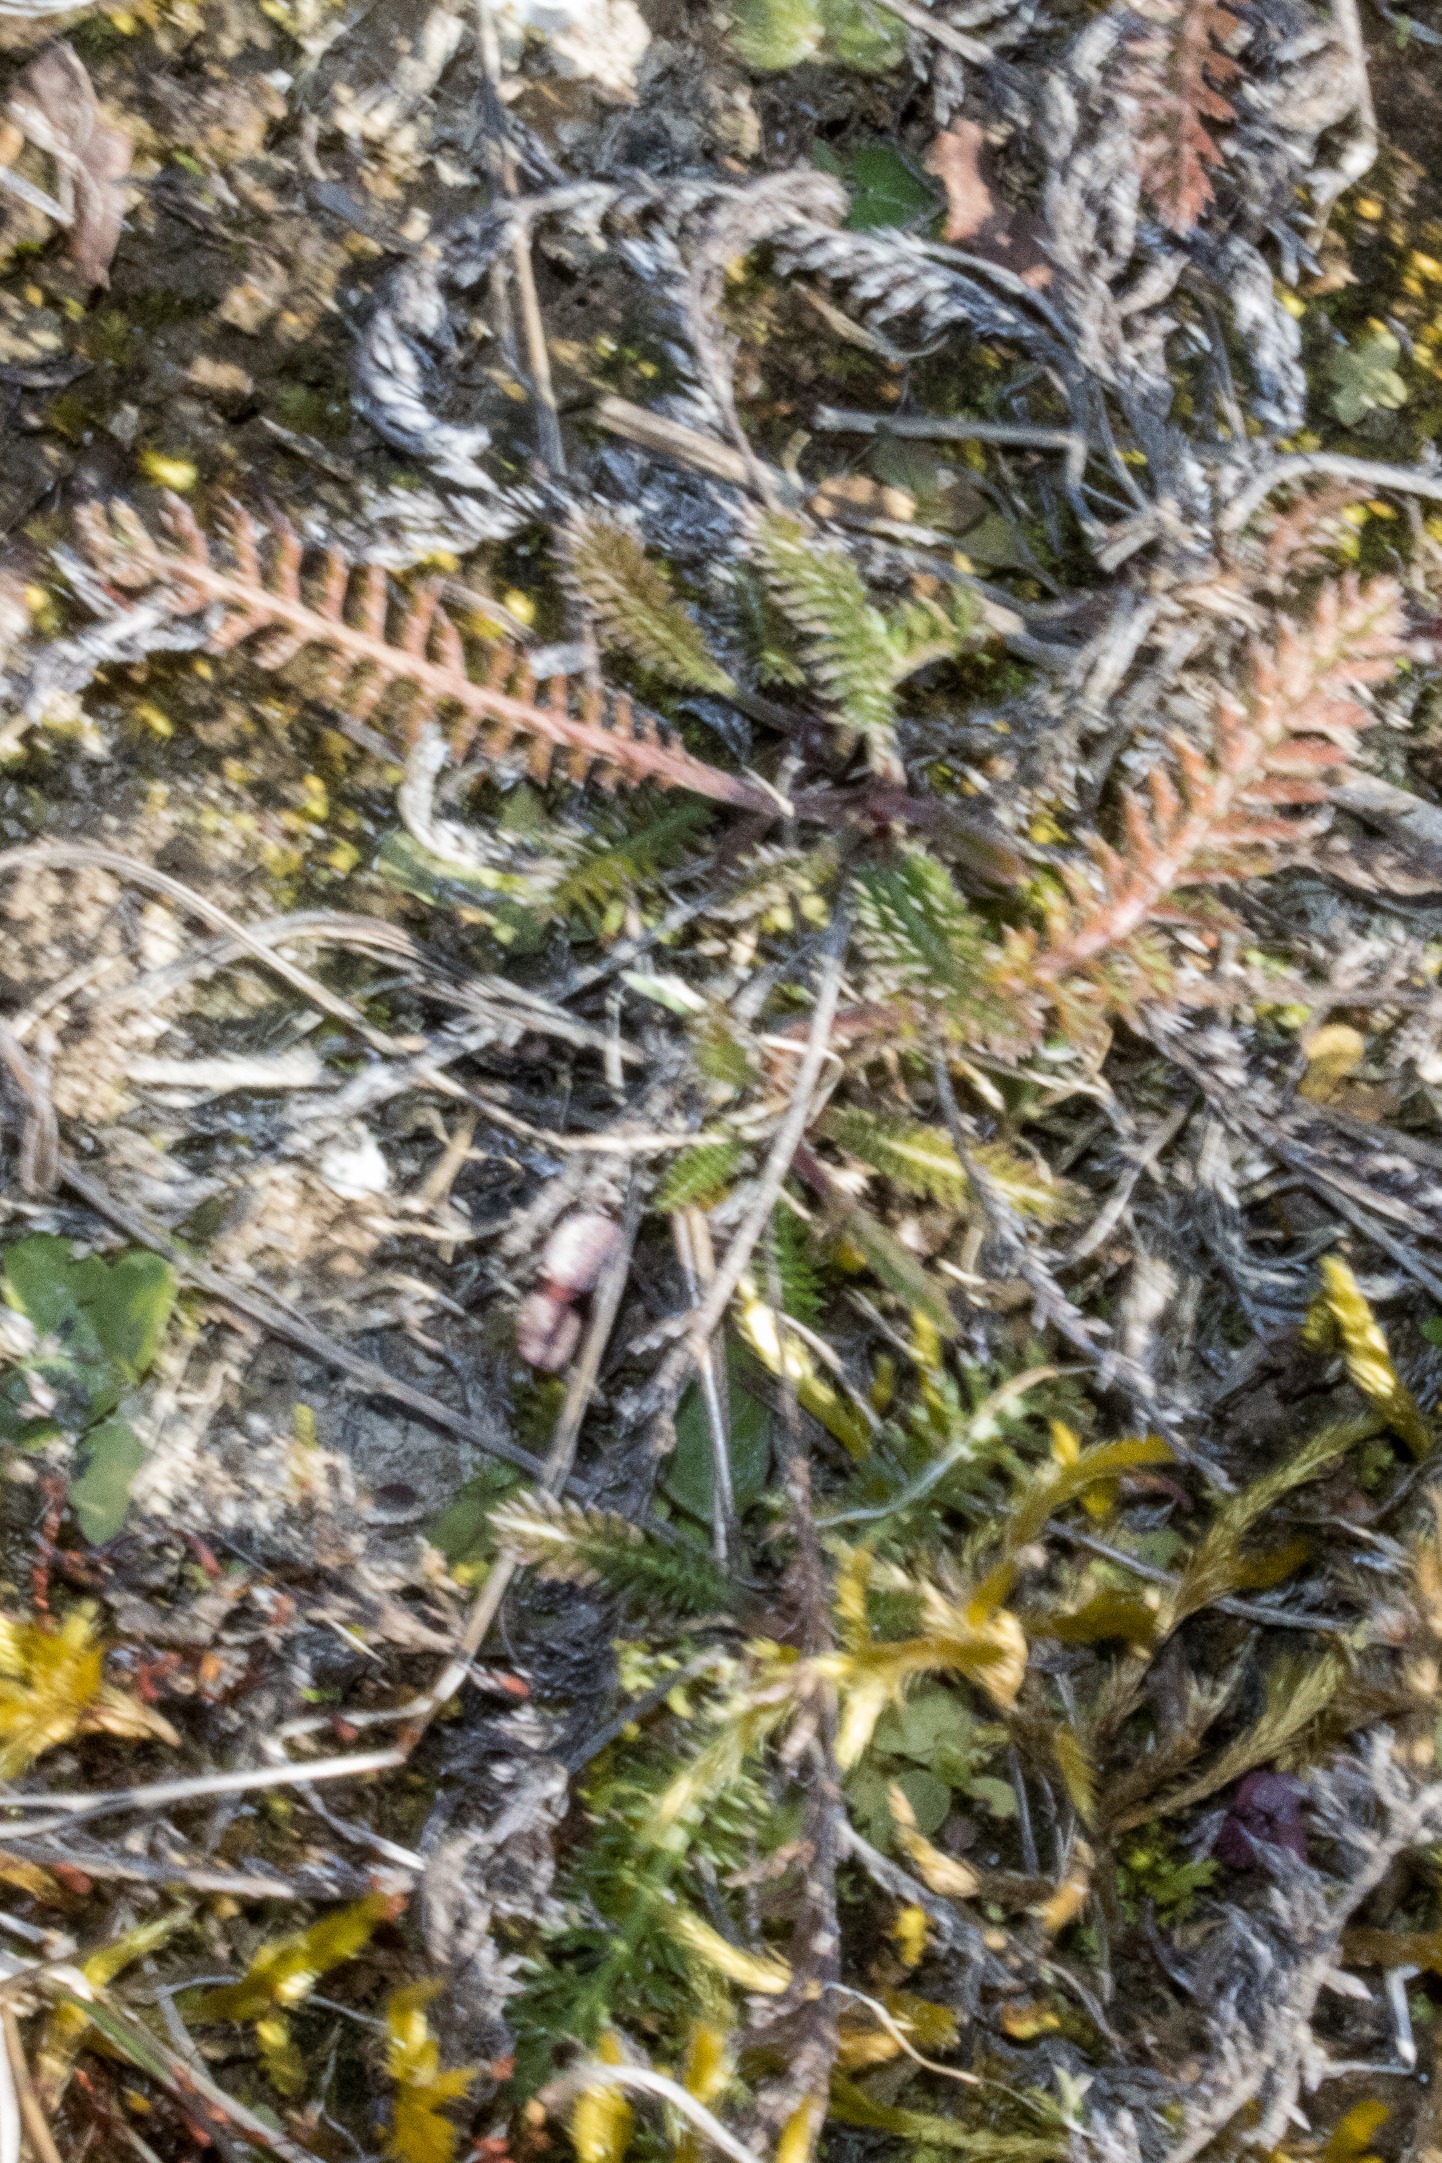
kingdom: Plantae
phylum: Tracheophyta
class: Magnoliopsida
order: Asterales
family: Asteraceae
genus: Achillea
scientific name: Achillea millefolium
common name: Almindelig røllike
